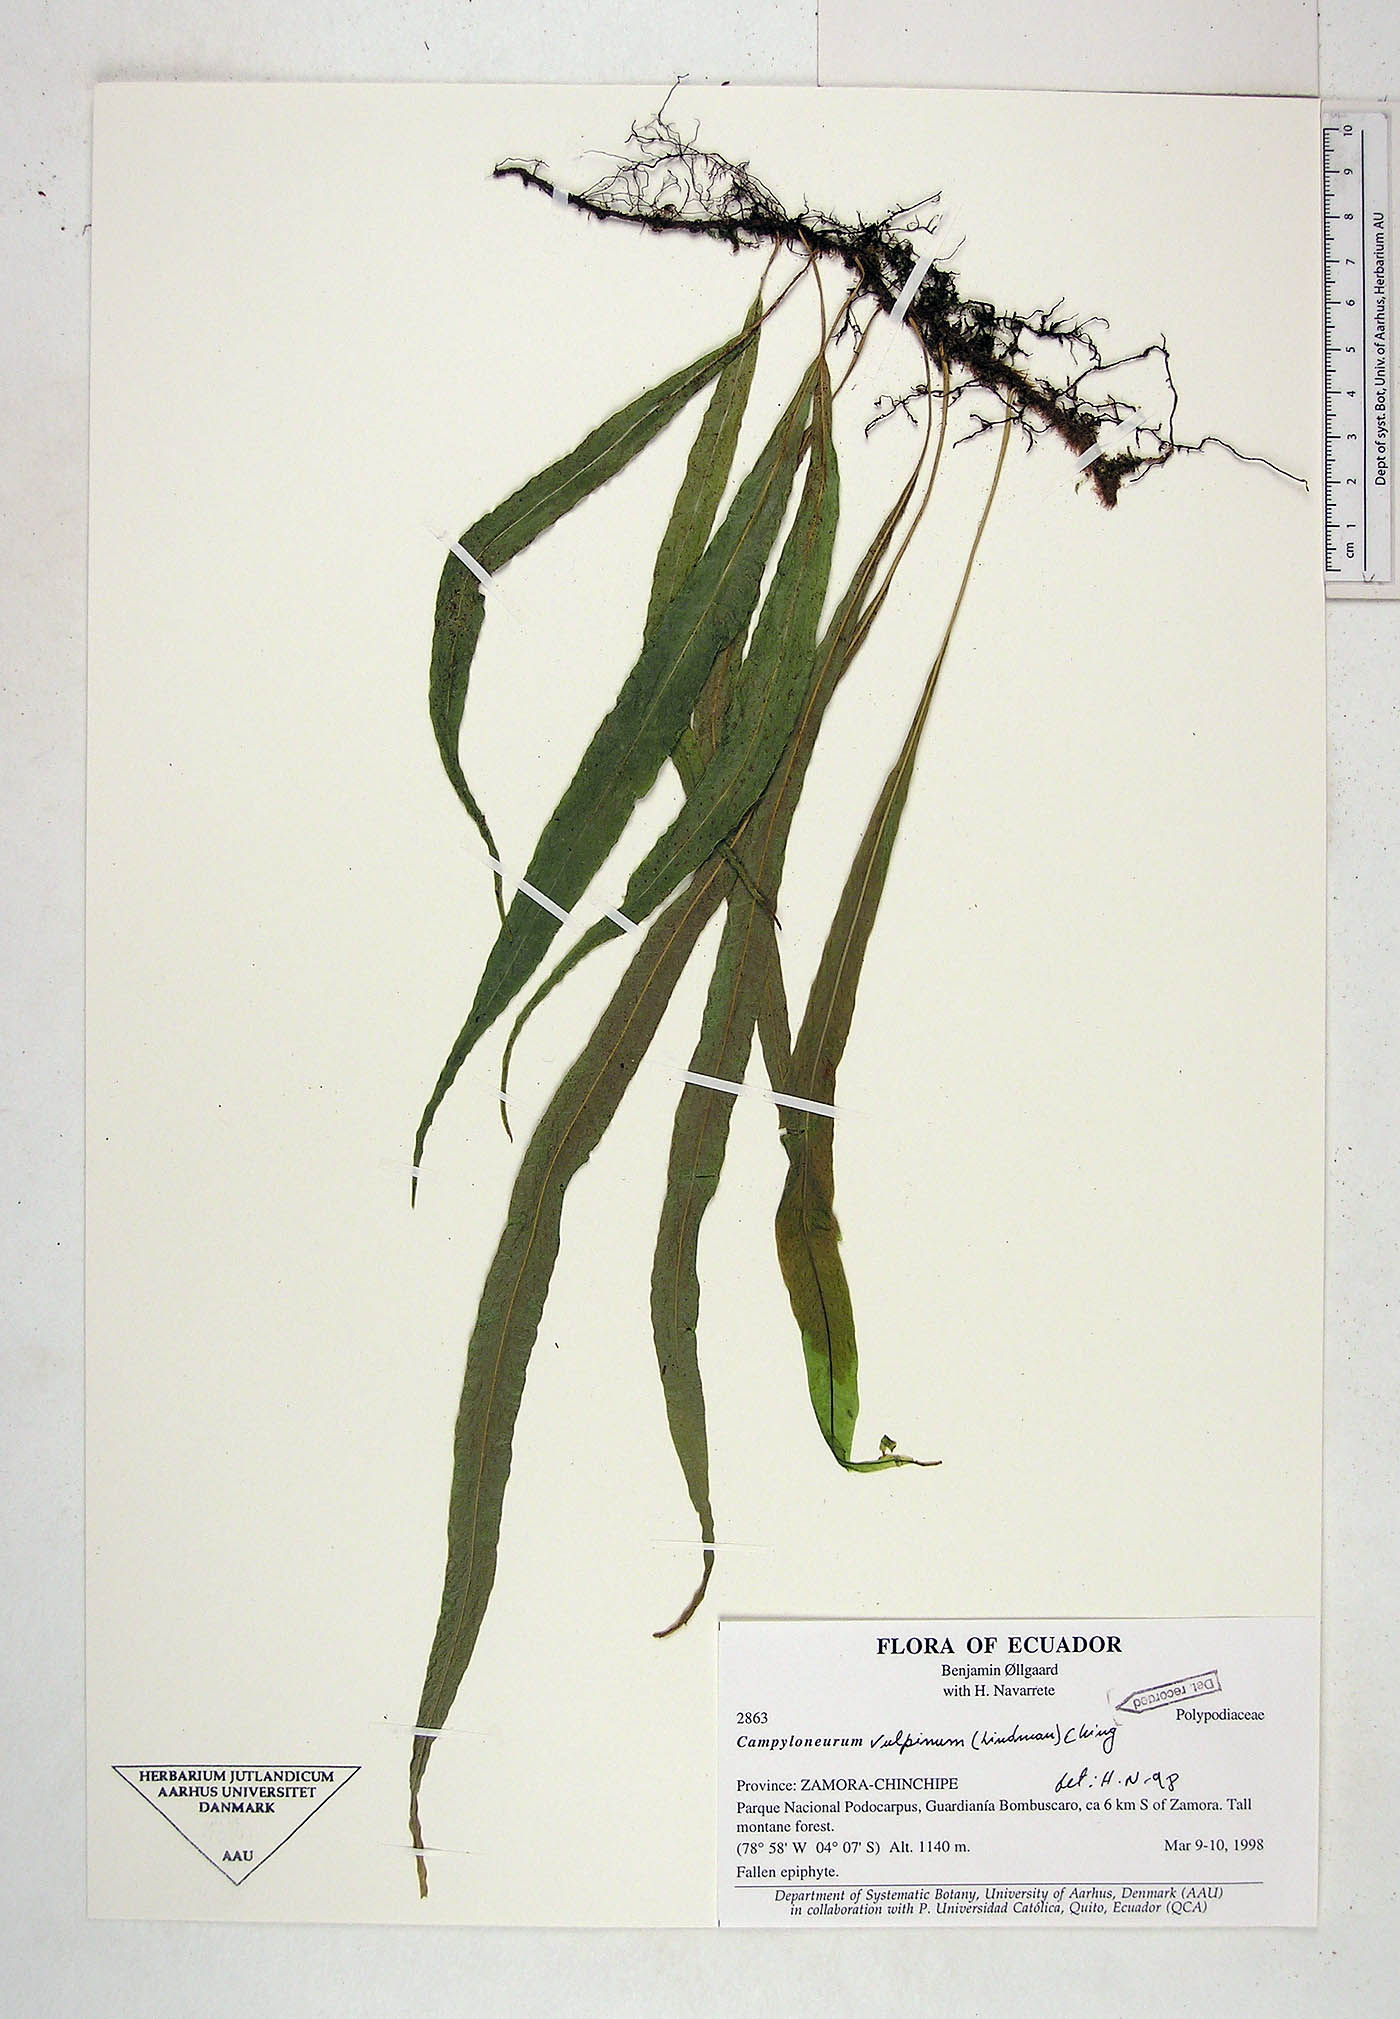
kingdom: Plantae
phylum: Tracheophyta
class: Polypodiopsida
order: Polypodiales
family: Polypodiaceae
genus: Campyloneurum
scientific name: Campyloneurum vulpinum
